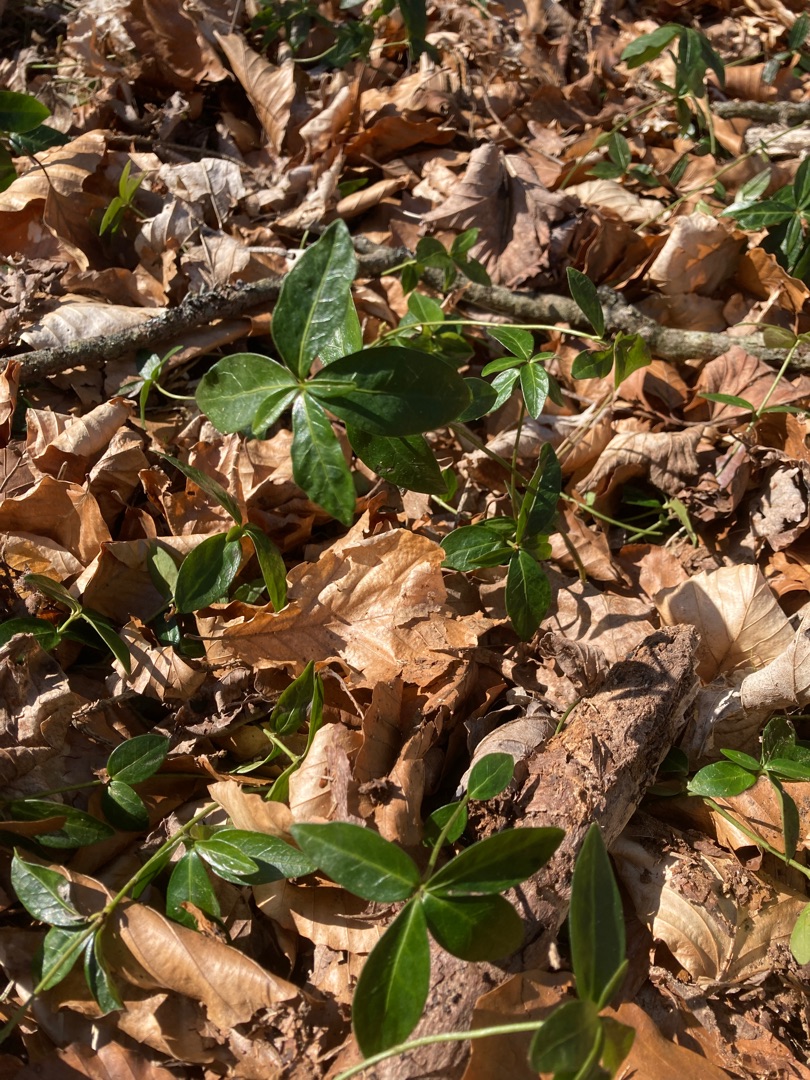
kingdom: Plantae
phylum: Tracheophyta
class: Magnoliopsida
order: Gentianales
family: Apocynaceae
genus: Vinca
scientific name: Vinca minor
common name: Liden singrøn
